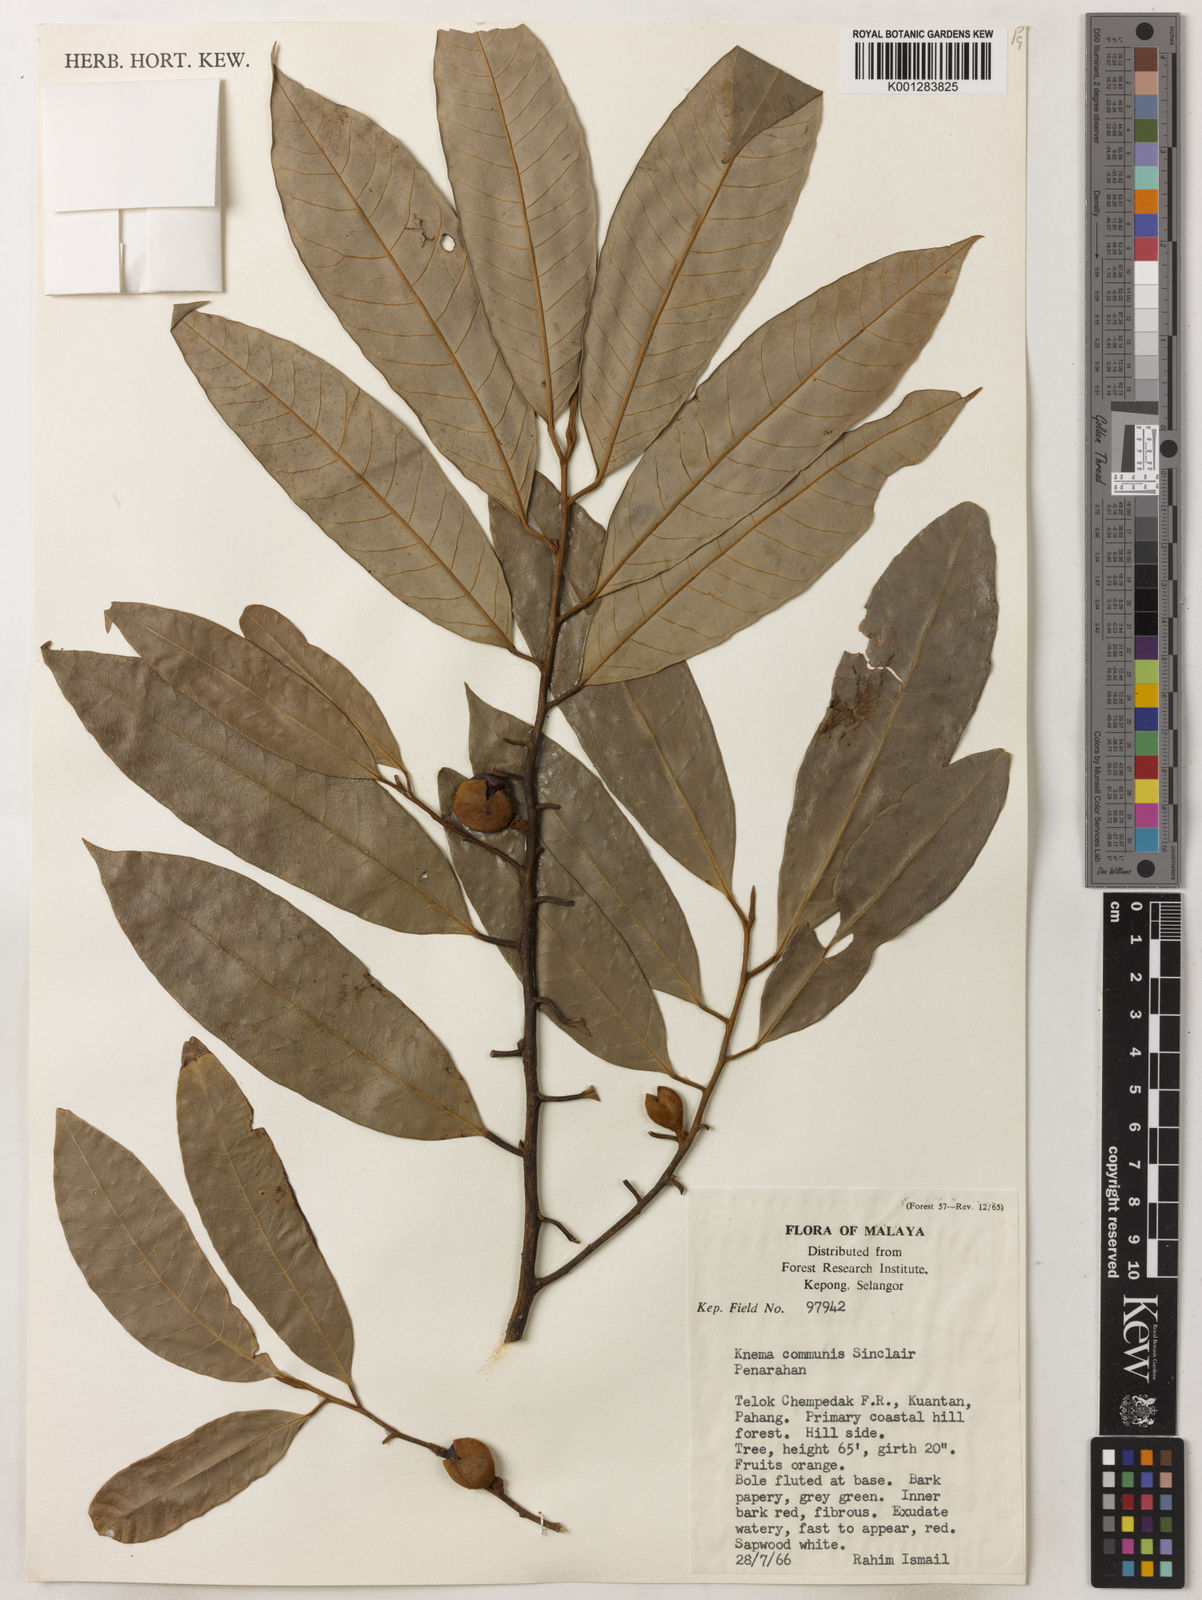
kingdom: Plantae
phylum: Tracheophyta
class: Magnoliopsida
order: Magnoliales
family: Myristicaceae
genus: Knema
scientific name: Knema communis
